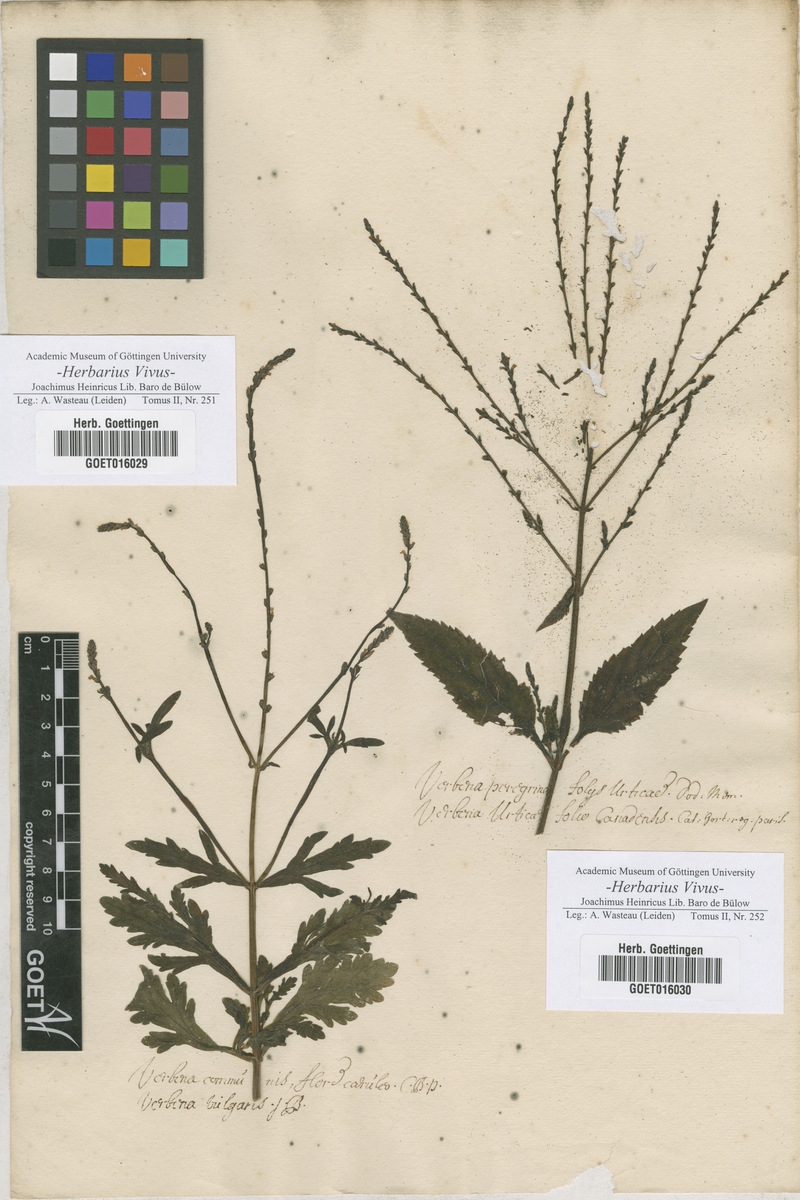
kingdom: Plantae
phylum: Tracheophyta
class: Magnoliopsida
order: Lamiales
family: Verbenaceae
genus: Verbena
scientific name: Verbena officinalis
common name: Vervain
